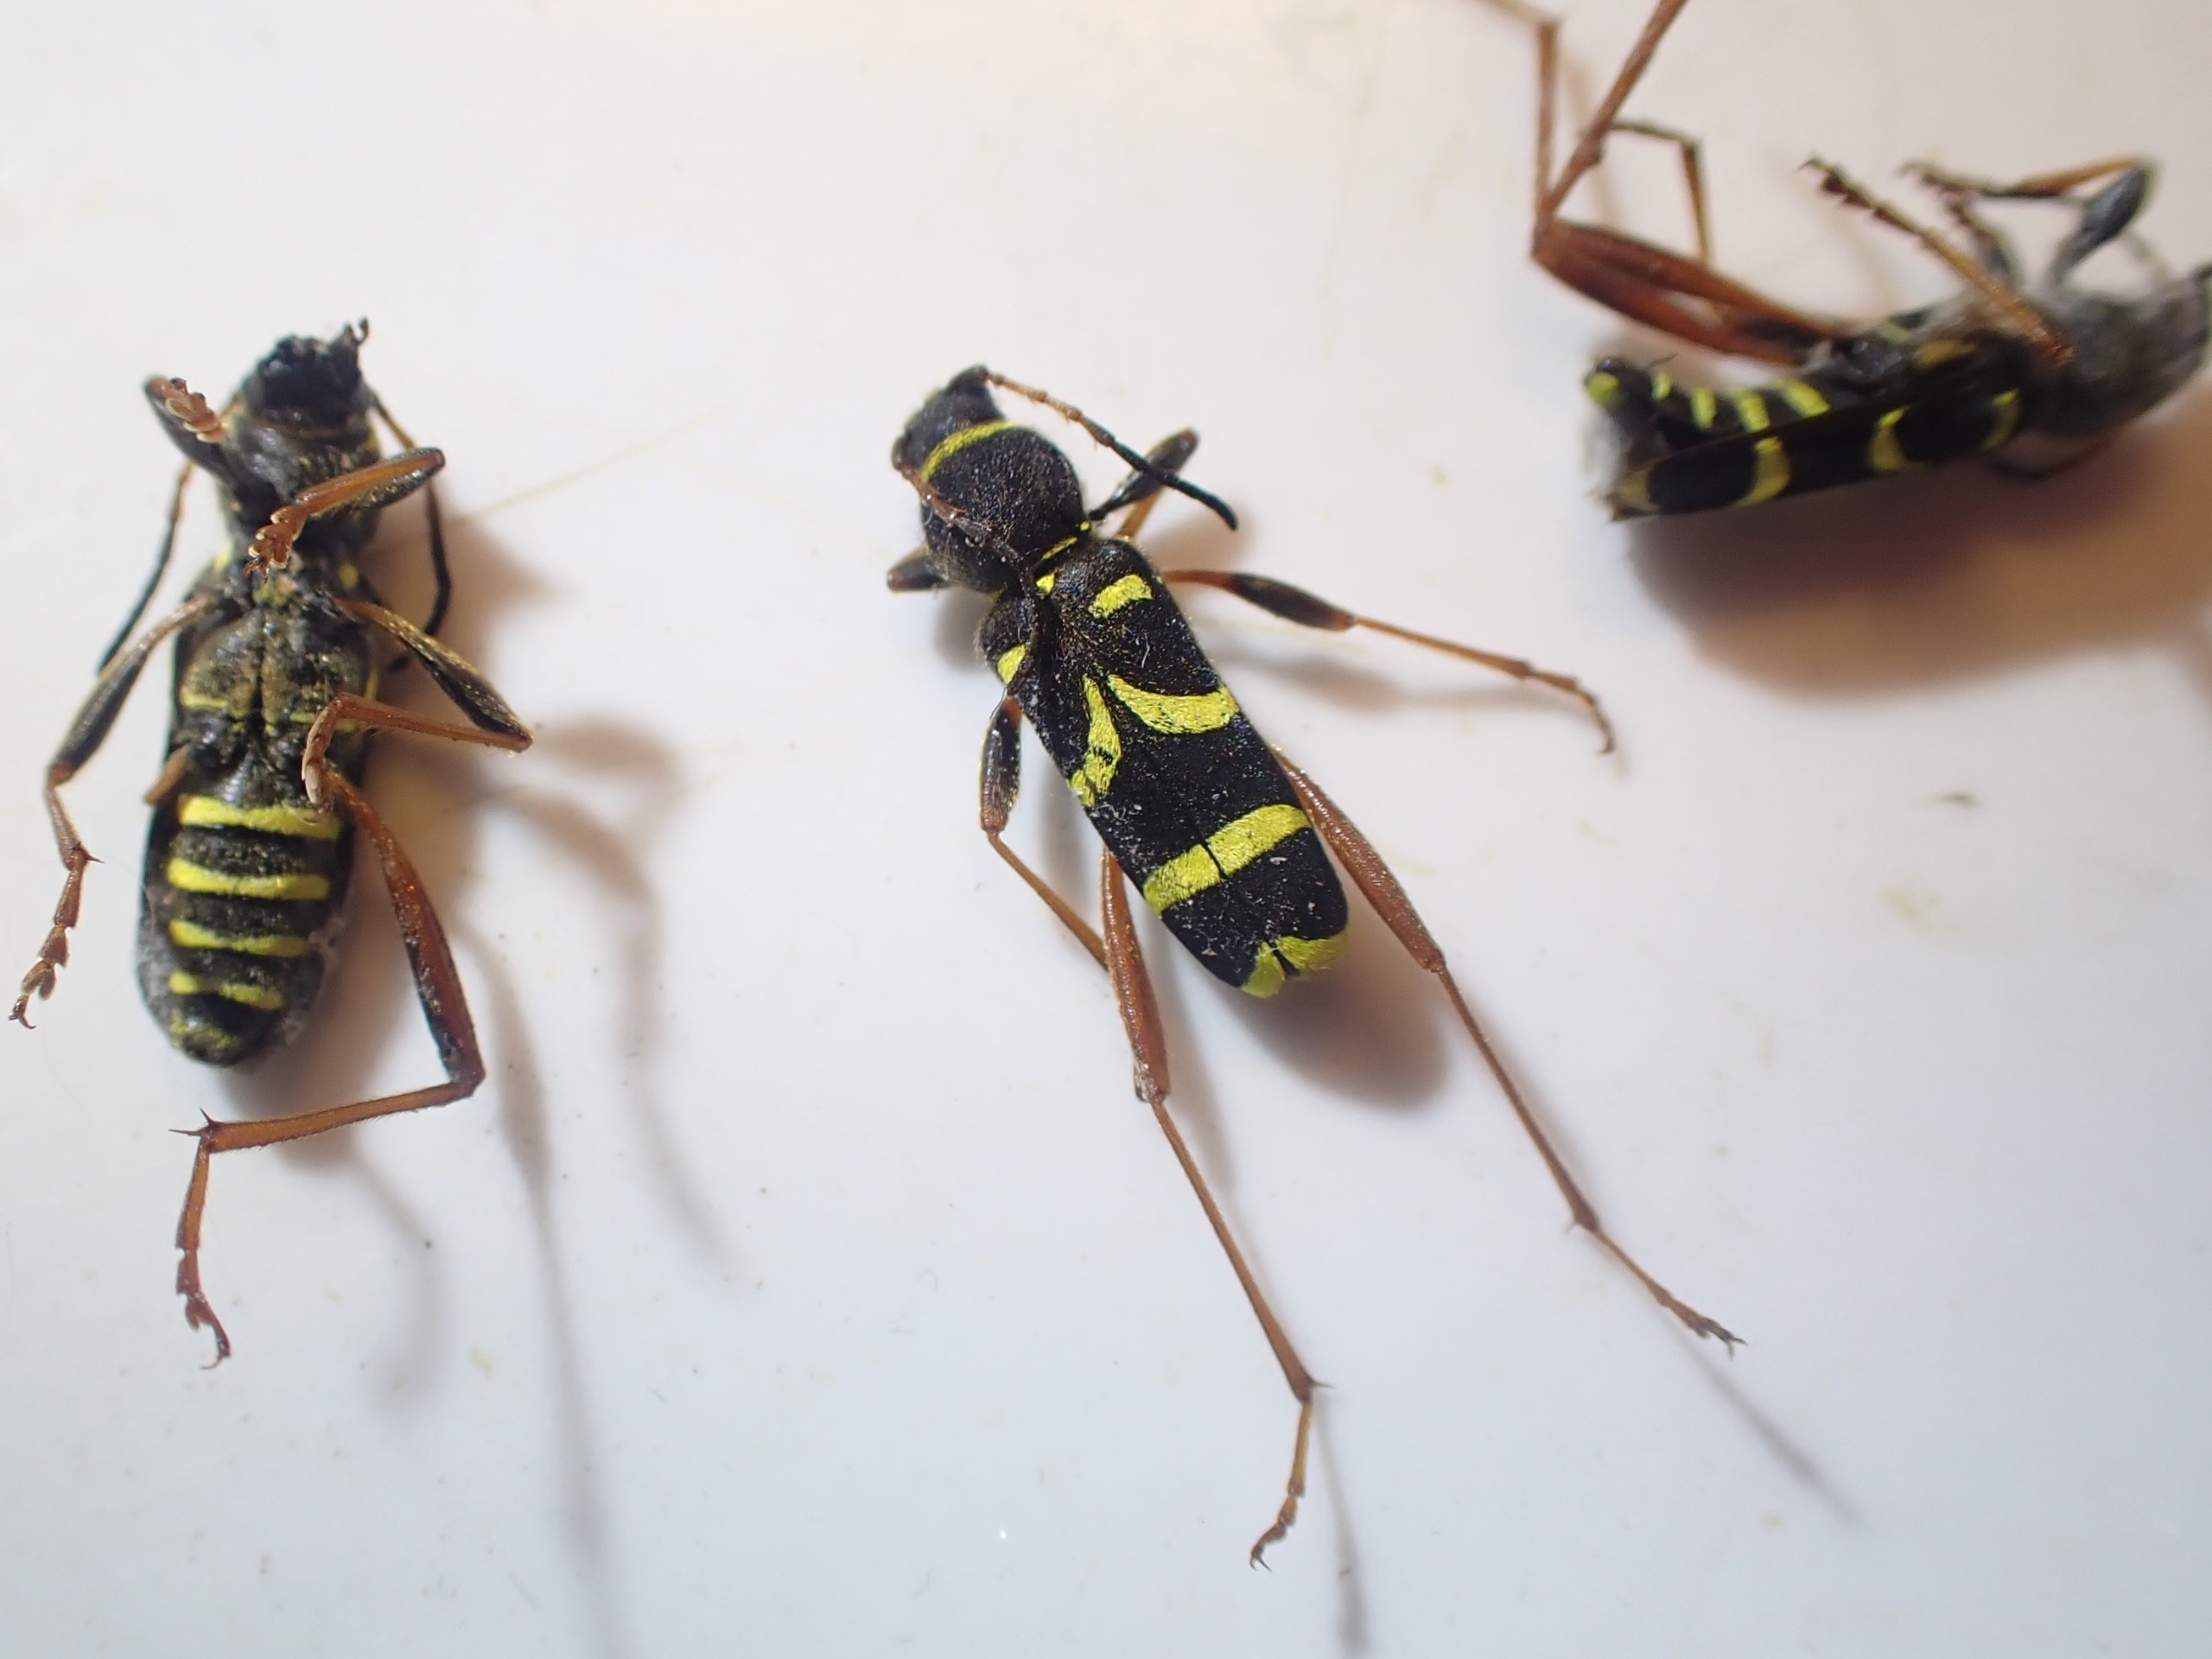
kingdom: Animalia
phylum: Arthropoda
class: Insecta
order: Coleoptera
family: Cerambycidae
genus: Clytus
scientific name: Clytus arietis
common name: Lille hvepsebuk
